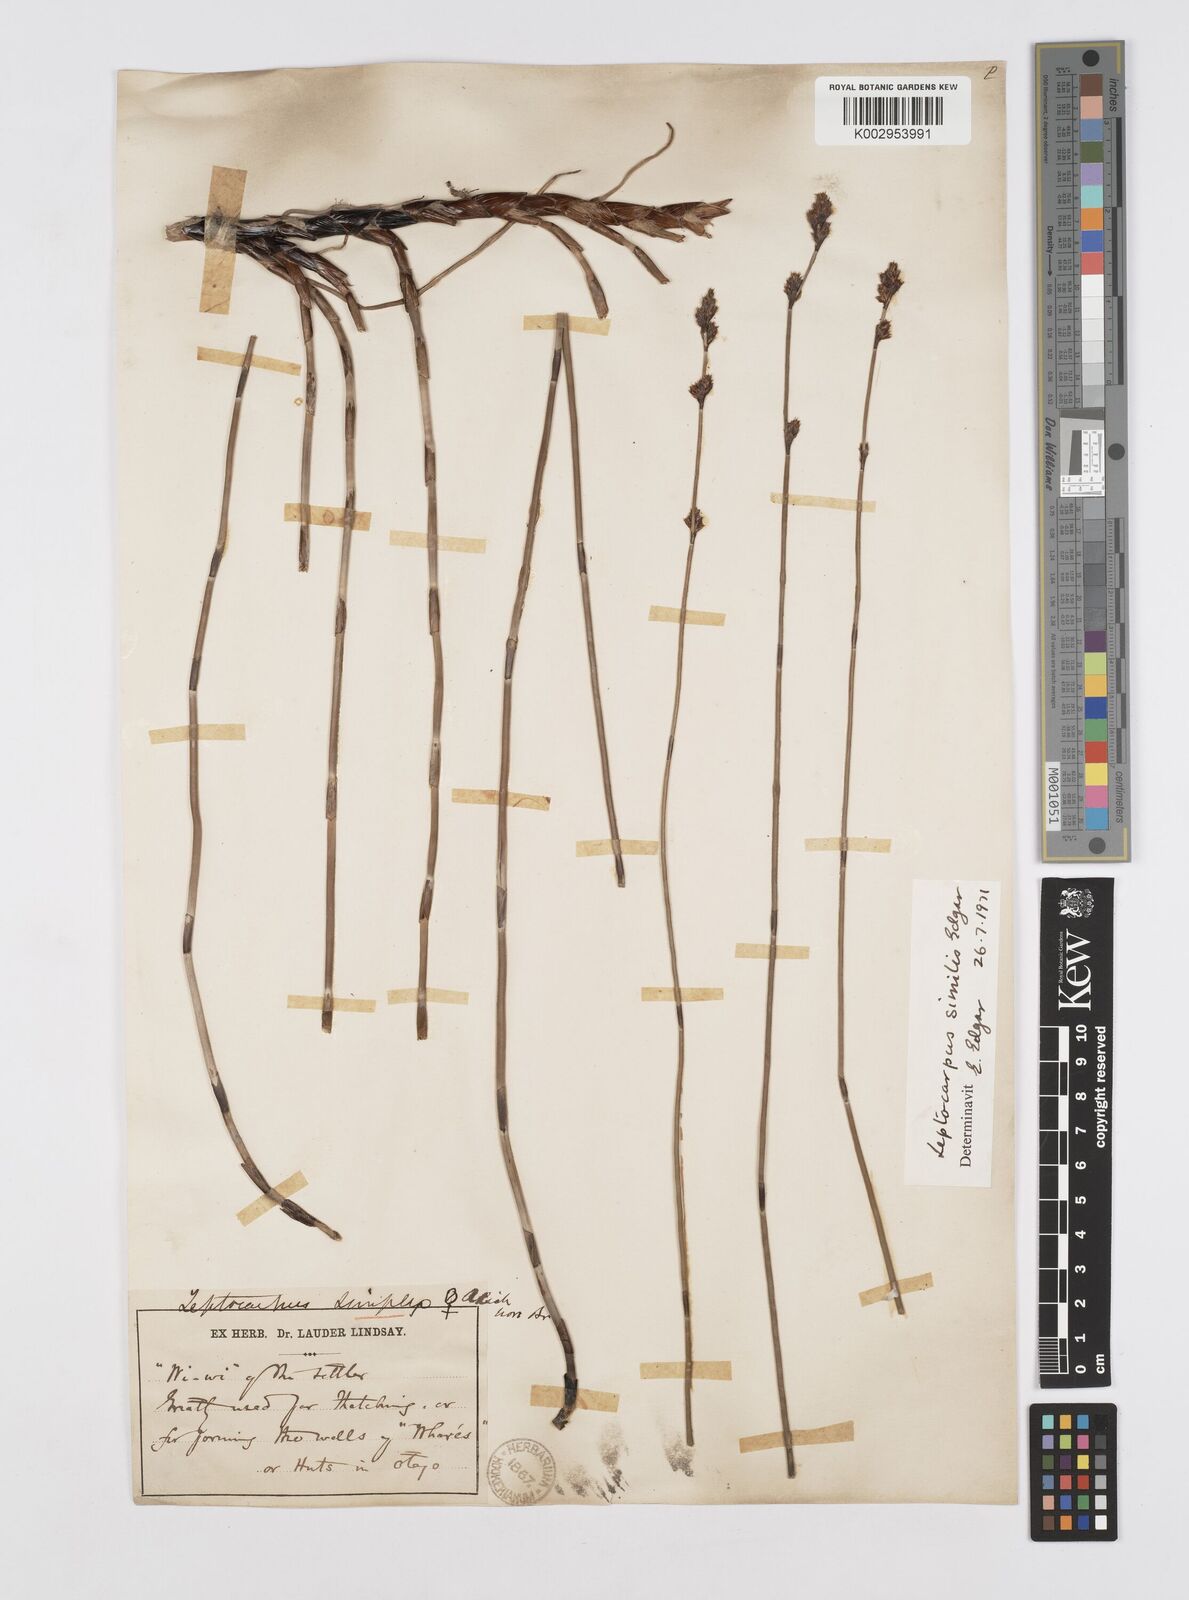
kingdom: Plantae
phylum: Tracheophyta
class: Liliopsida
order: Poales
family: Restionaceae
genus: Apodasmia
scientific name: Apodasmia similis
